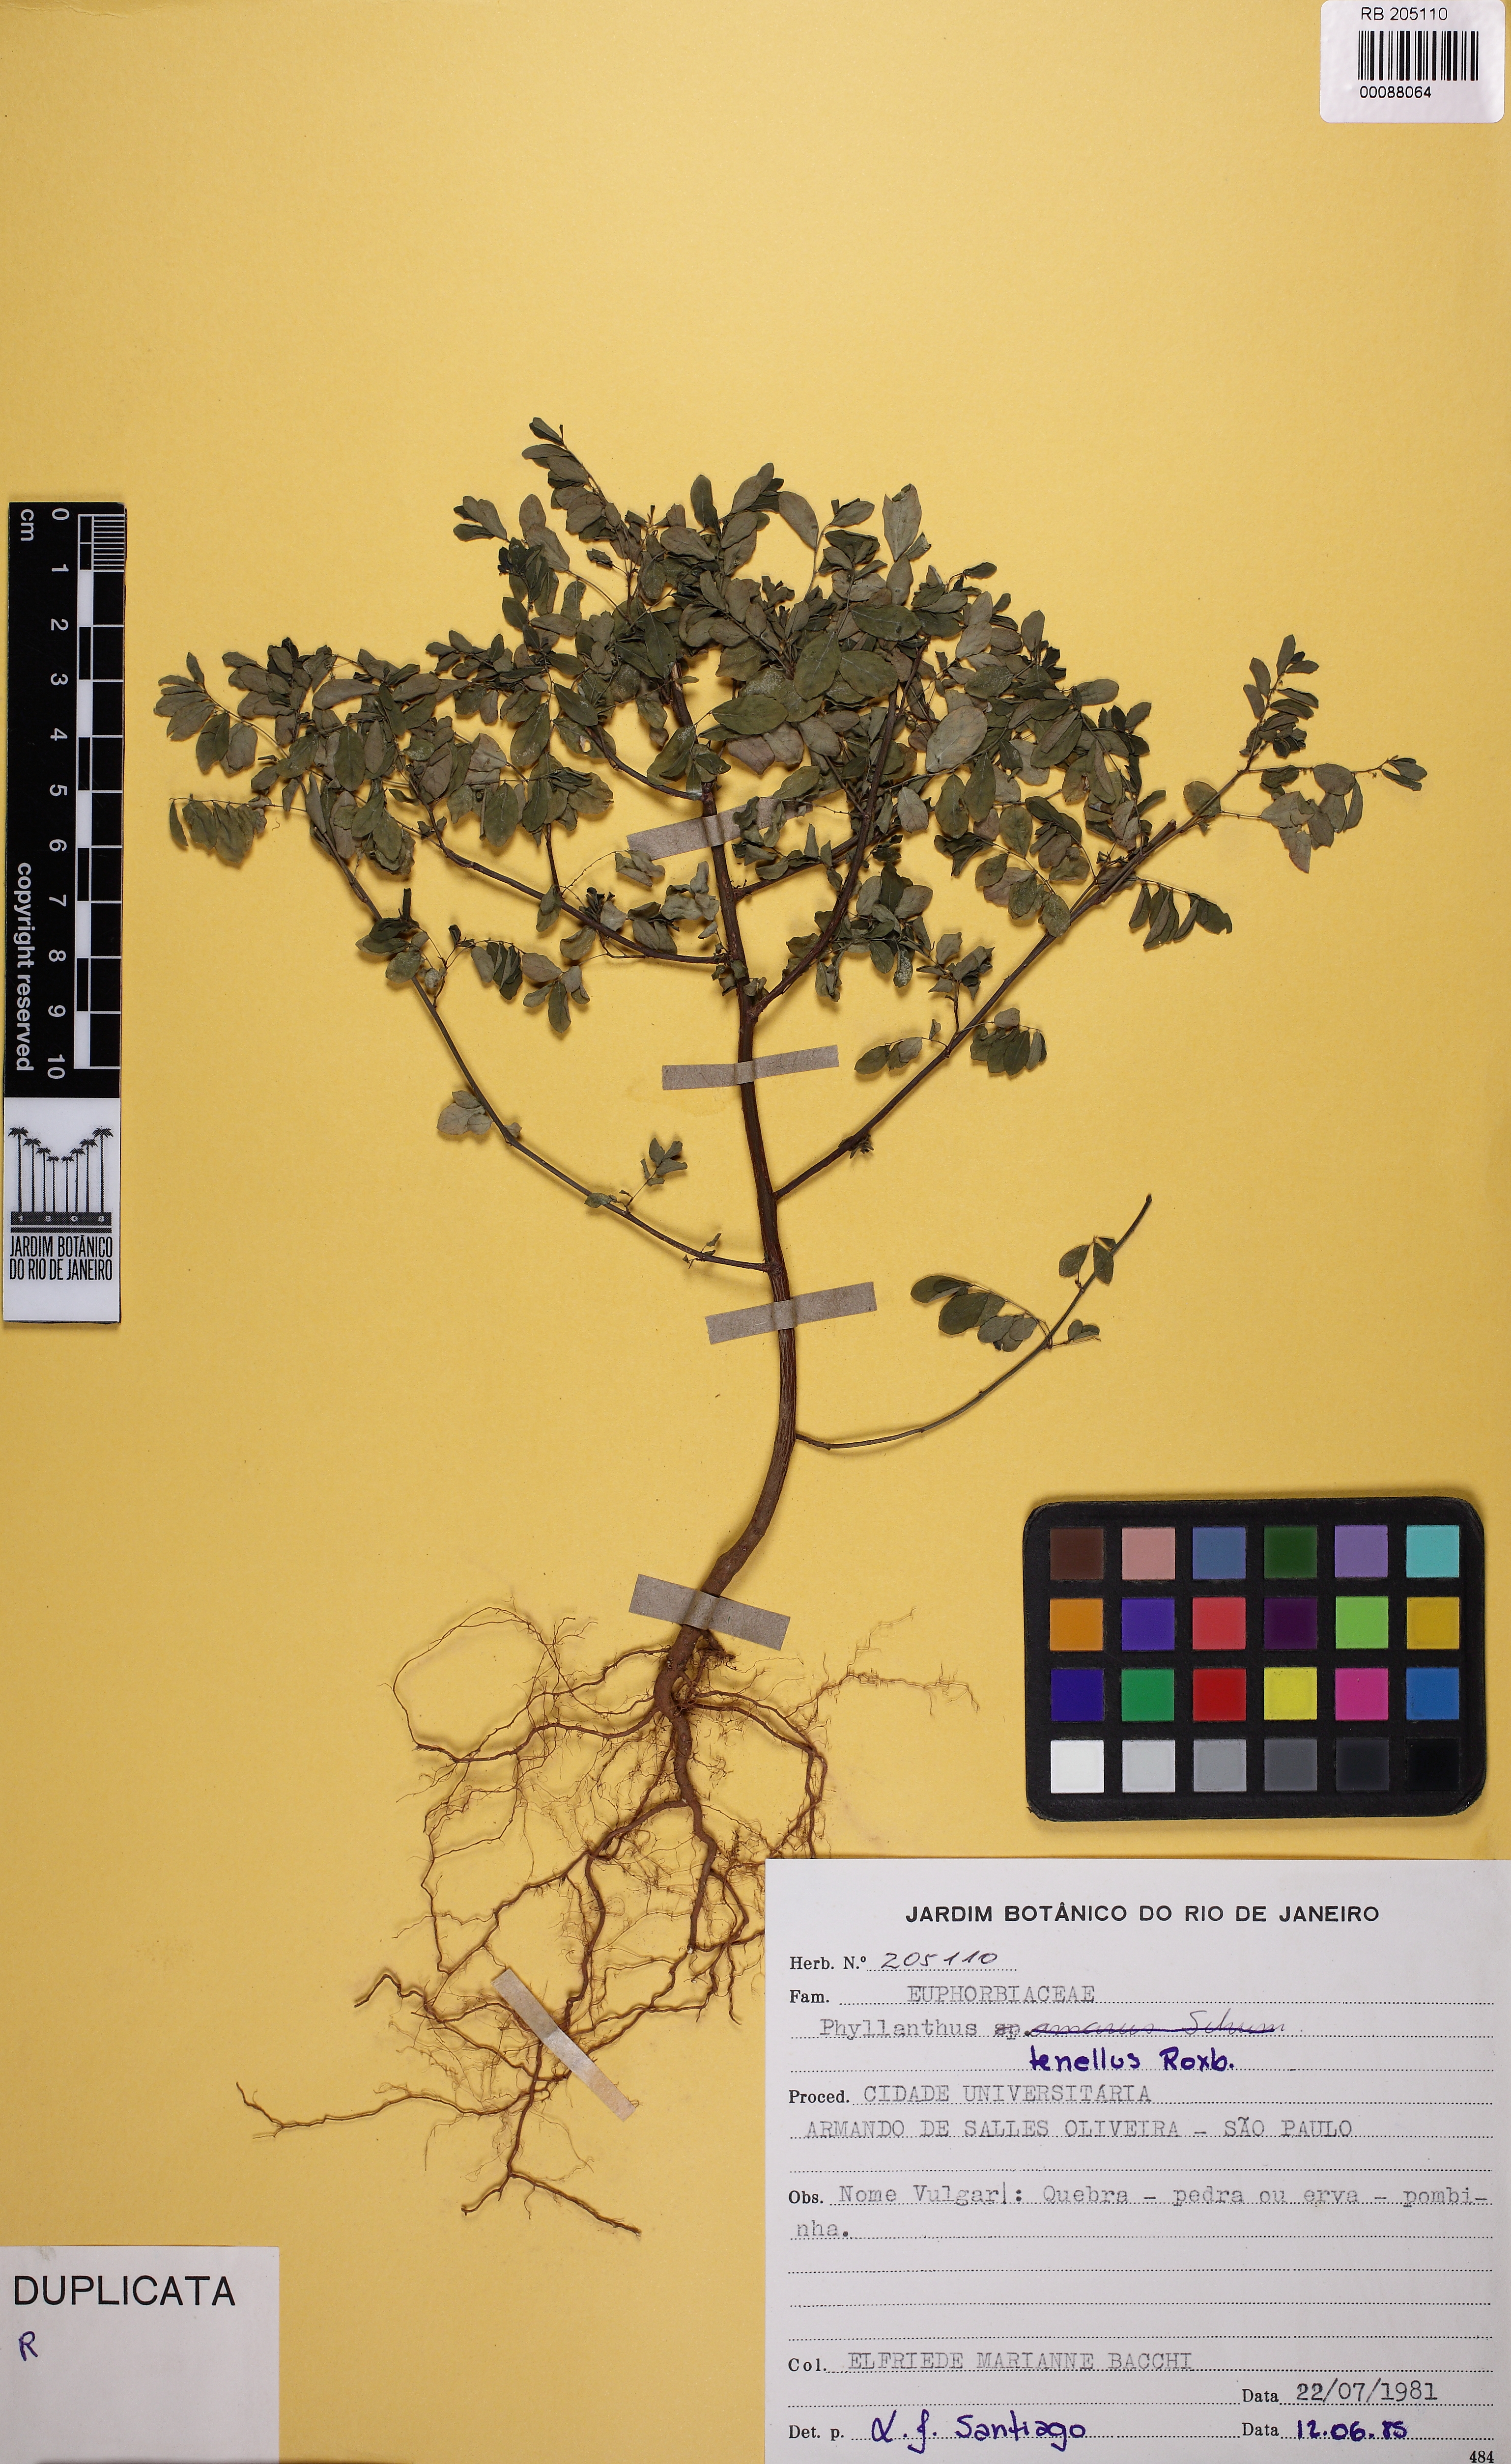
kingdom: Plantae
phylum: Tracheophyta
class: Magnoliopsida
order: Malpighiales
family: Phyllanthaceae
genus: Phyllanthus
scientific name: Phyllanthus tenellus
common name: Mascarene island leaf-flower
